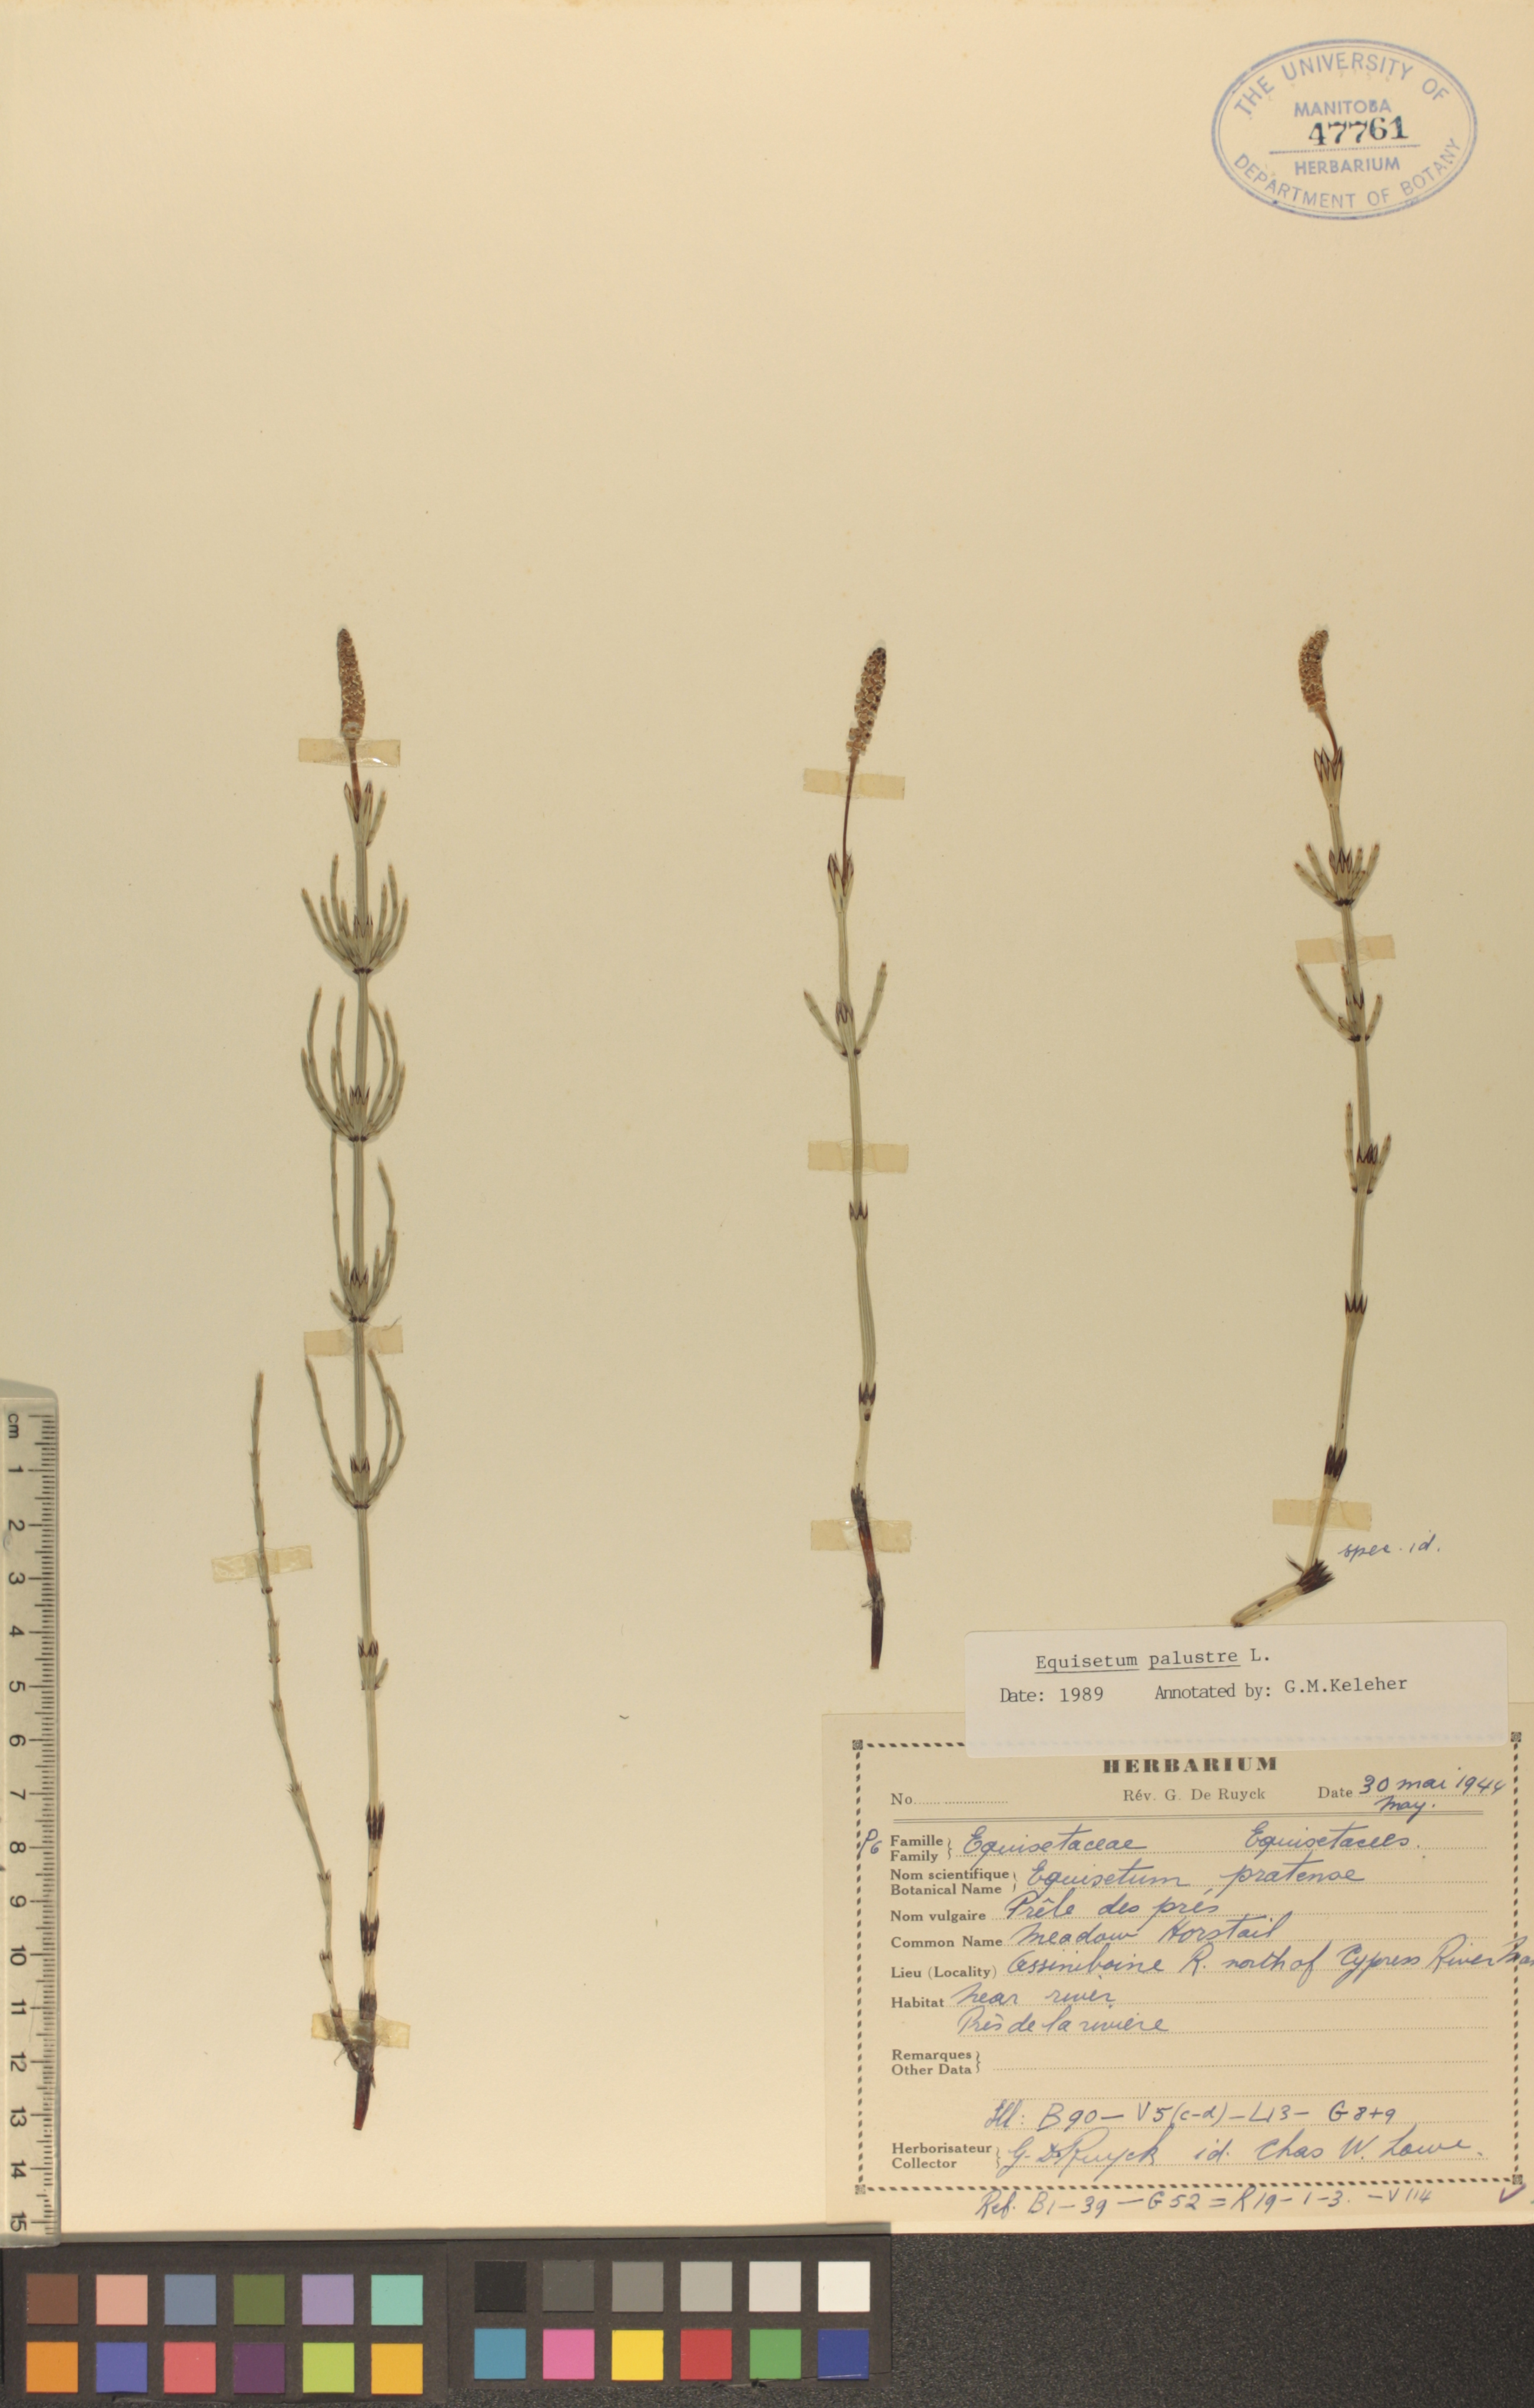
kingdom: Plantae
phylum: Tracheophyta
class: Polypodiopsida
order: Equisetales
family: Equisetaceae
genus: Equisetum
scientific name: Equisetum palustre
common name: Marsh horsetail
